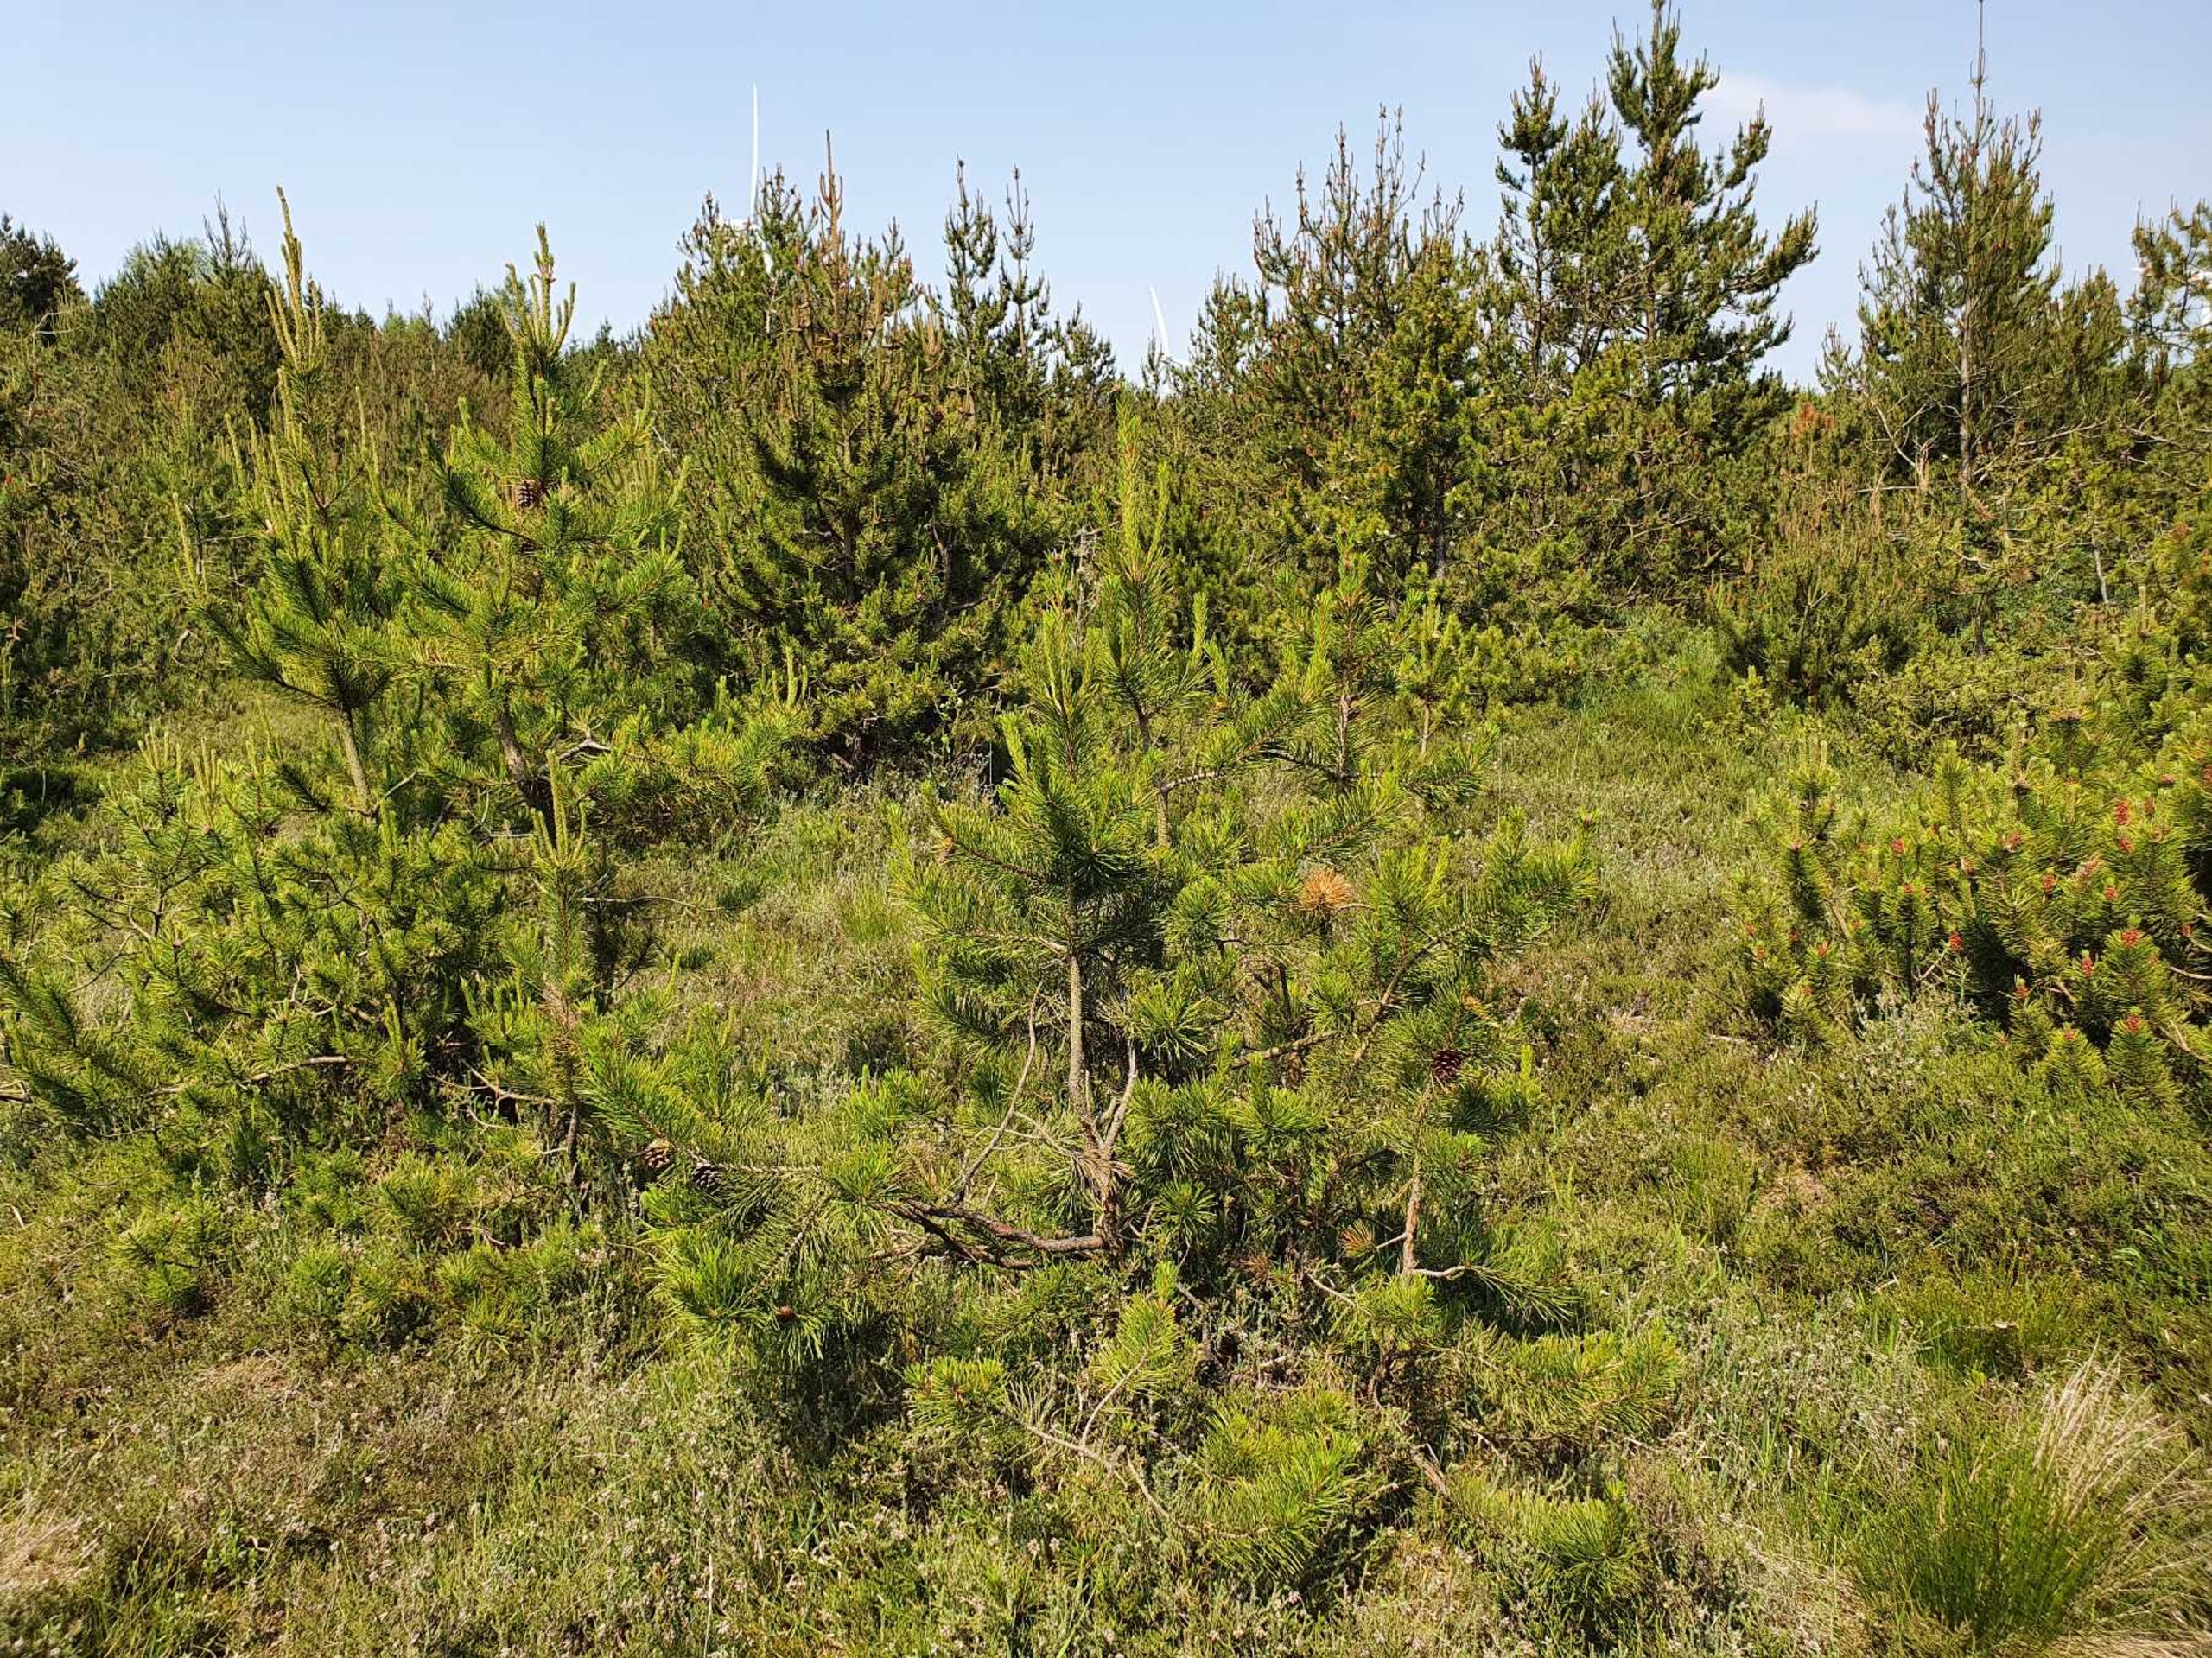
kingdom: Plantae
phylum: Tracheophyta
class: Pinopsida
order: Pinales
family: Pinaceae
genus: Pinus
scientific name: Pinus mugo
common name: Bjerg-fyr
